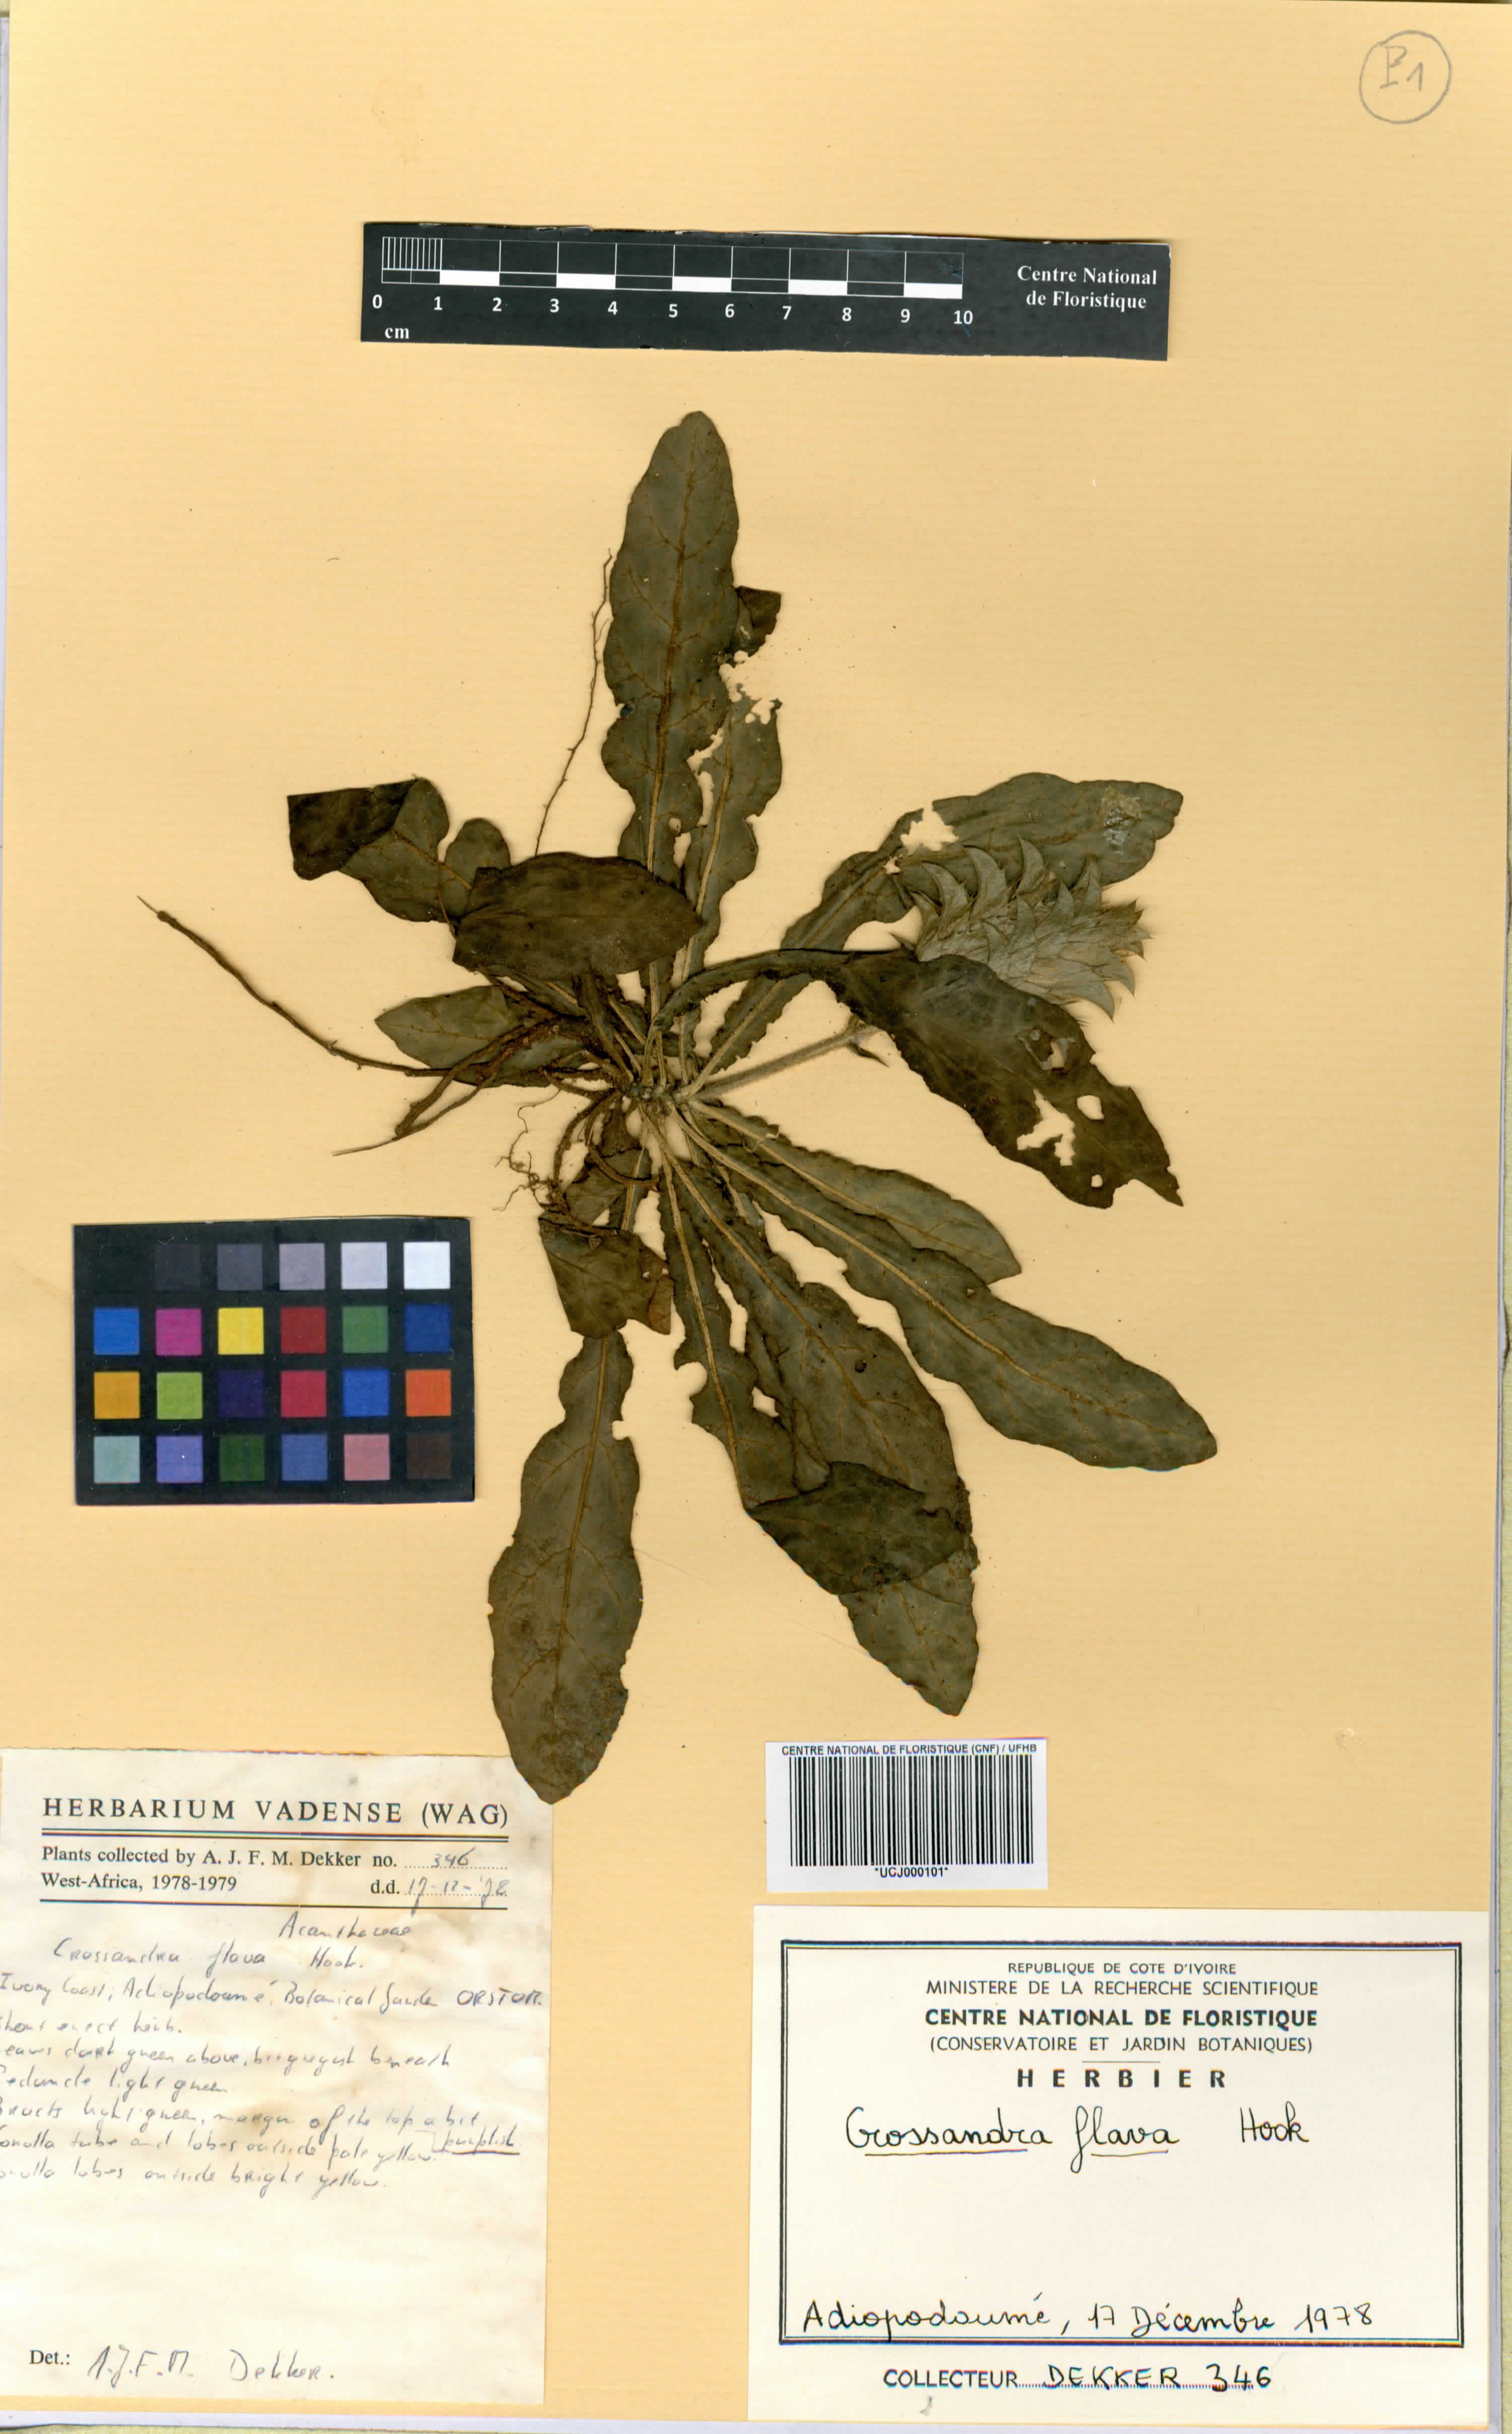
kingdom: Plantae
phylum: Tracheophyta
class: Magnoliopsida
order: Lamiales
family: Acanthaceae
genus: Crossandra
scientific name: Crossandra flava
